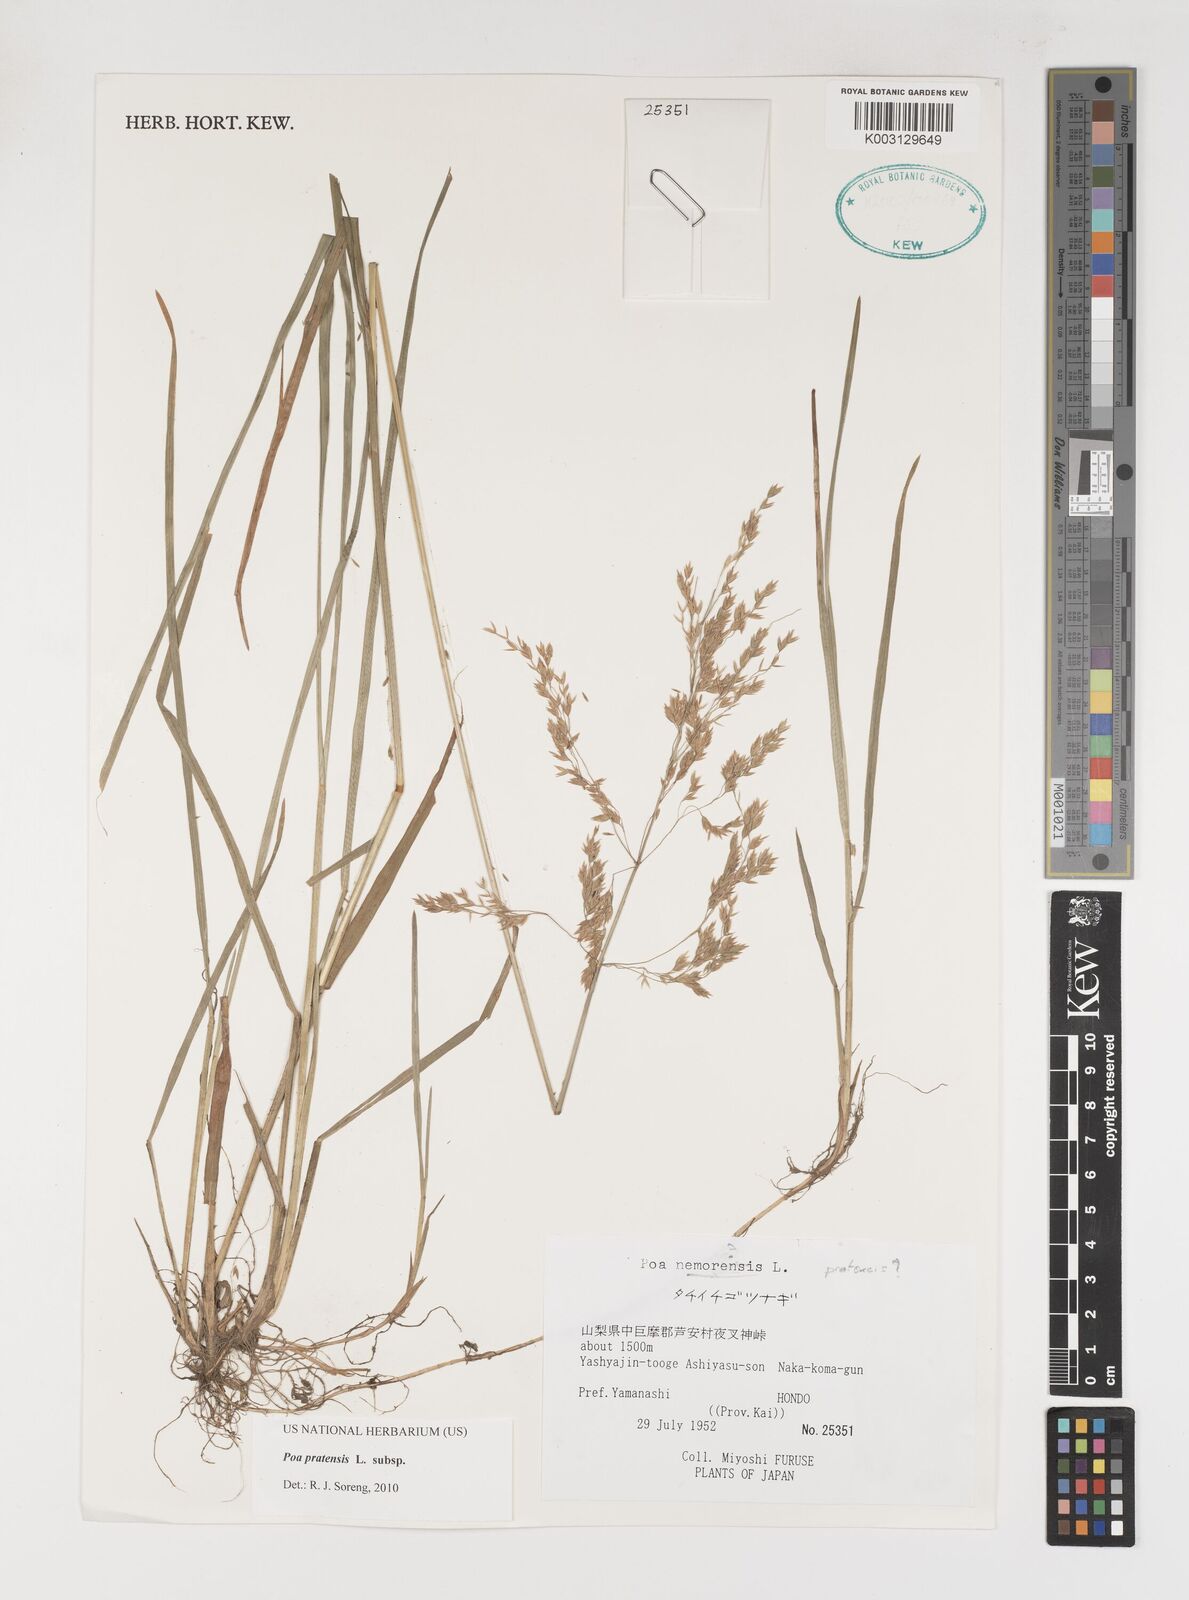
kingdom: Plantae
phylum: Tracheophyta
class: Liliopsida
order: Poales
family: Poaceae
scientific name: Poaceae
